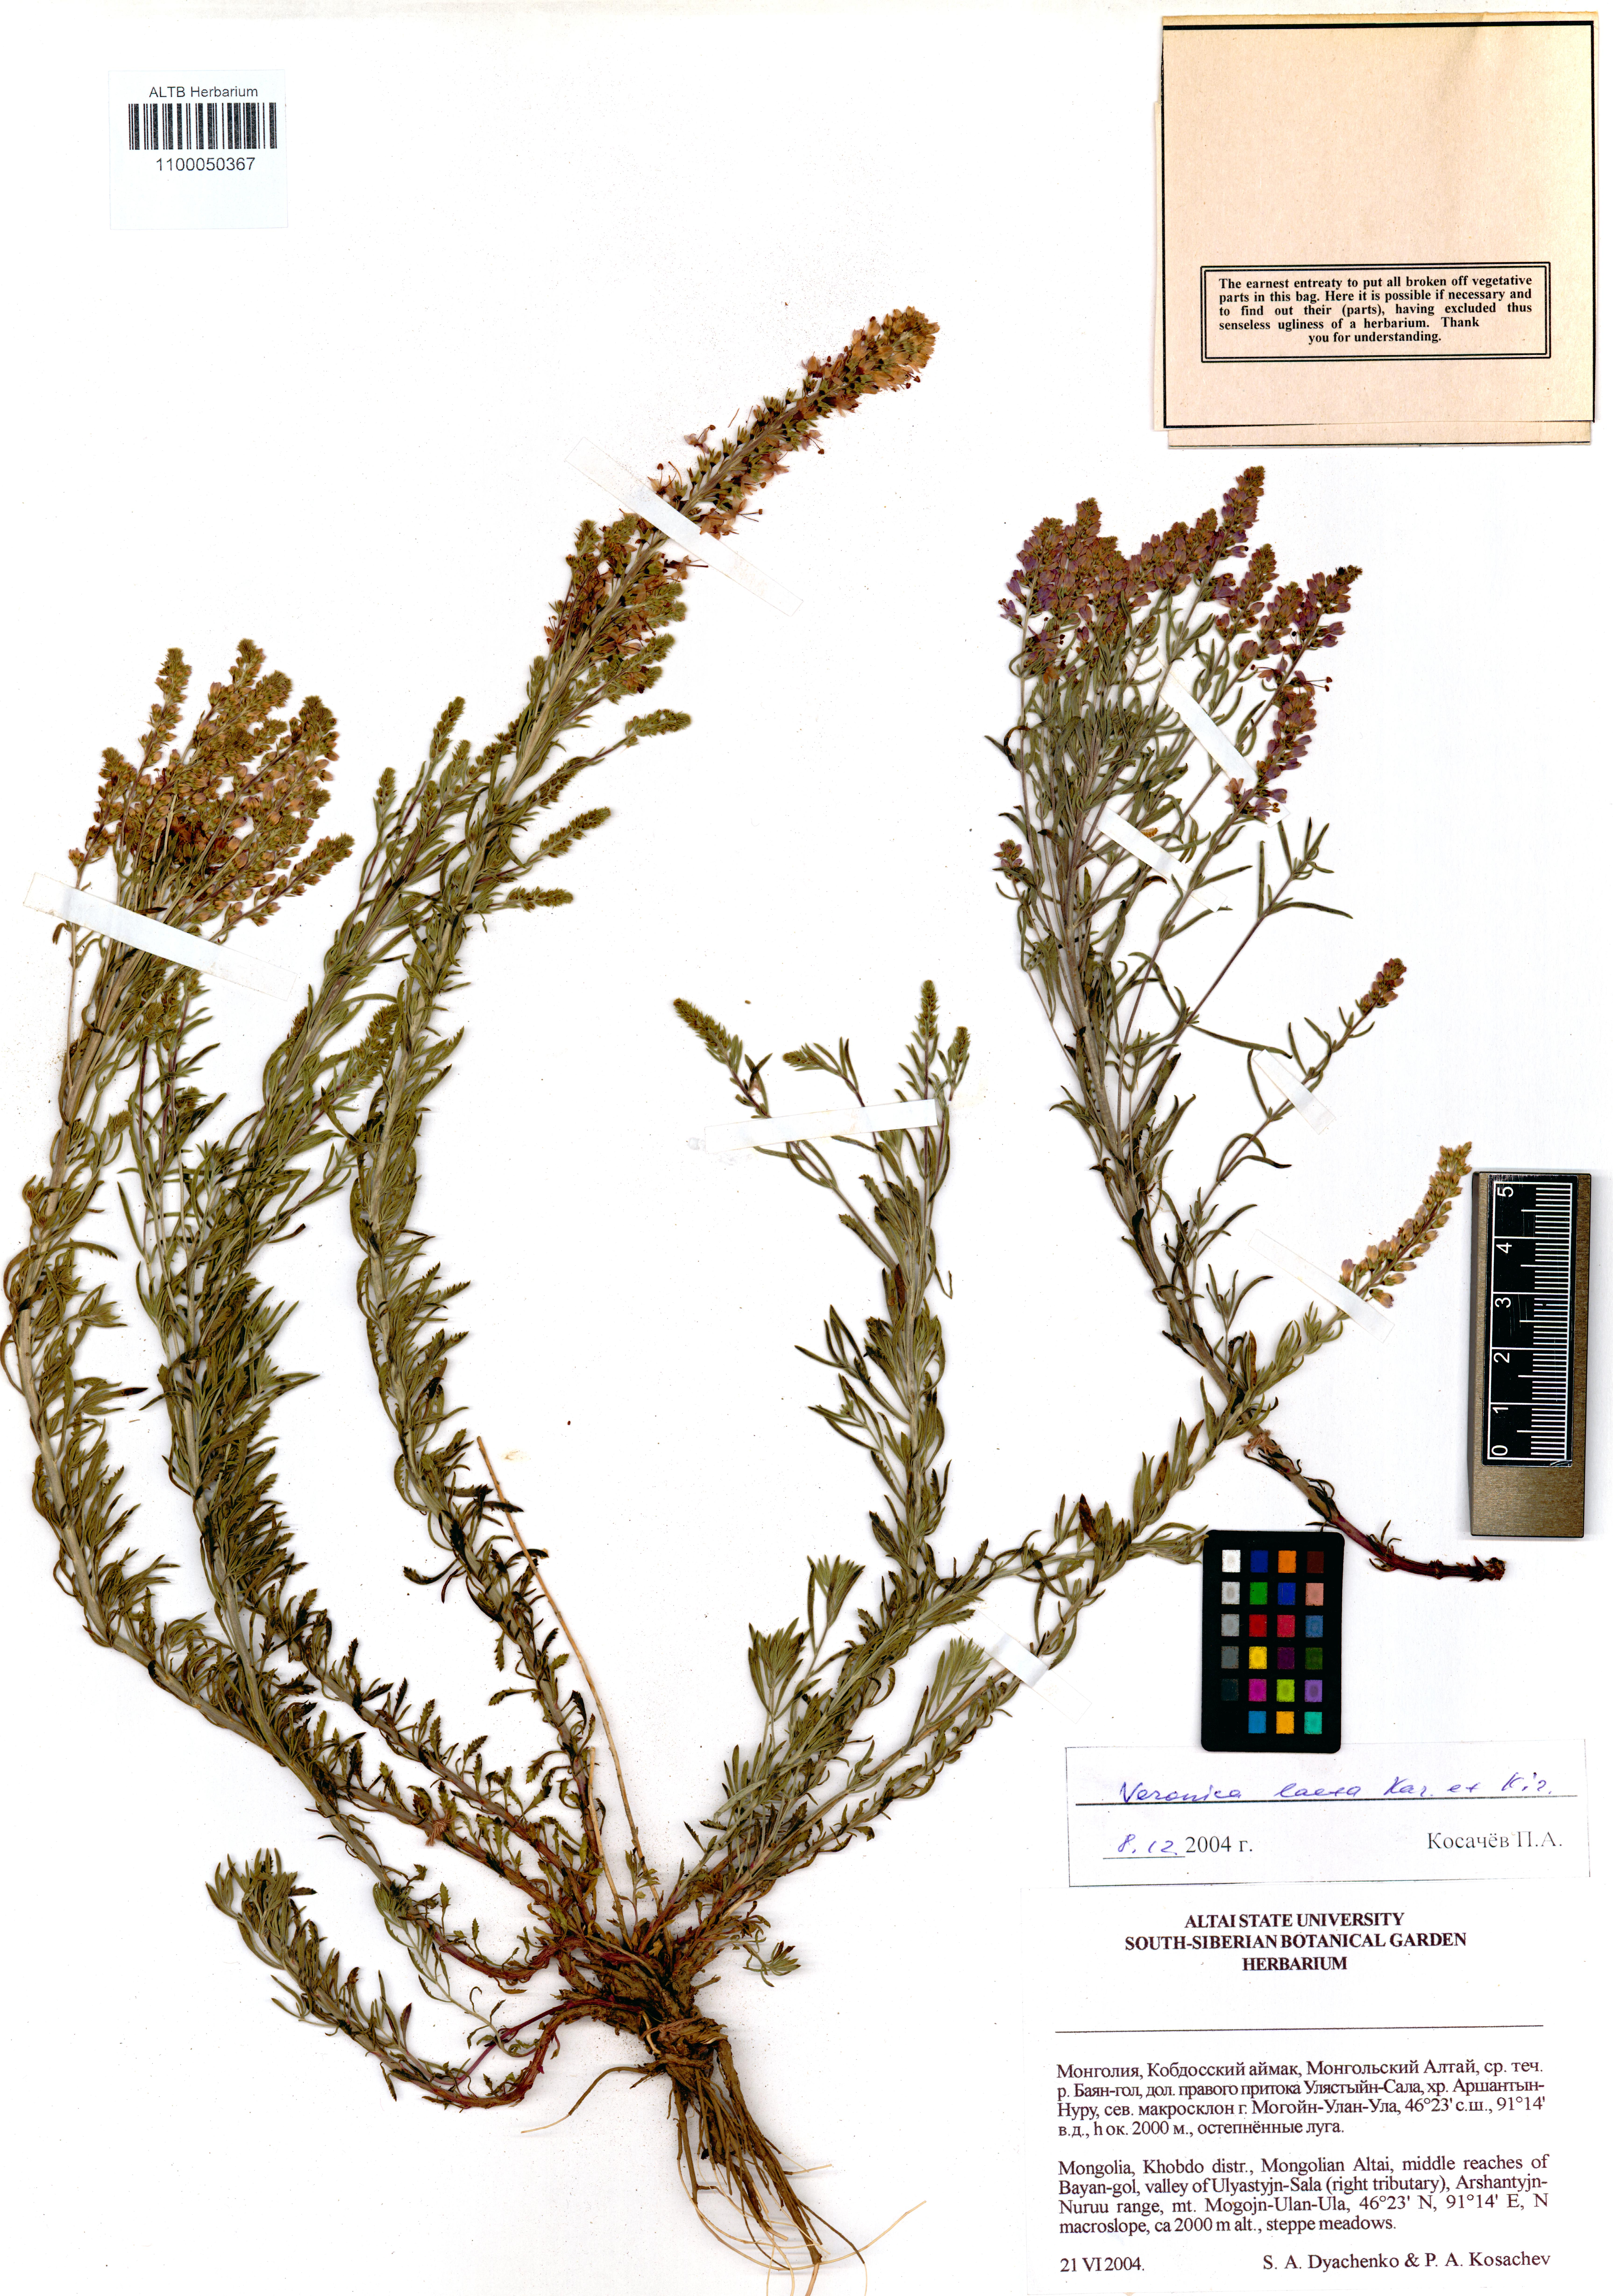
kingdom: Plantae
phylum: Tracheophyta
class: Magnoliopsida
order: Lamiales
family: Plantaginaceae
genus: Veronica
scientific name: Veronica laeta
